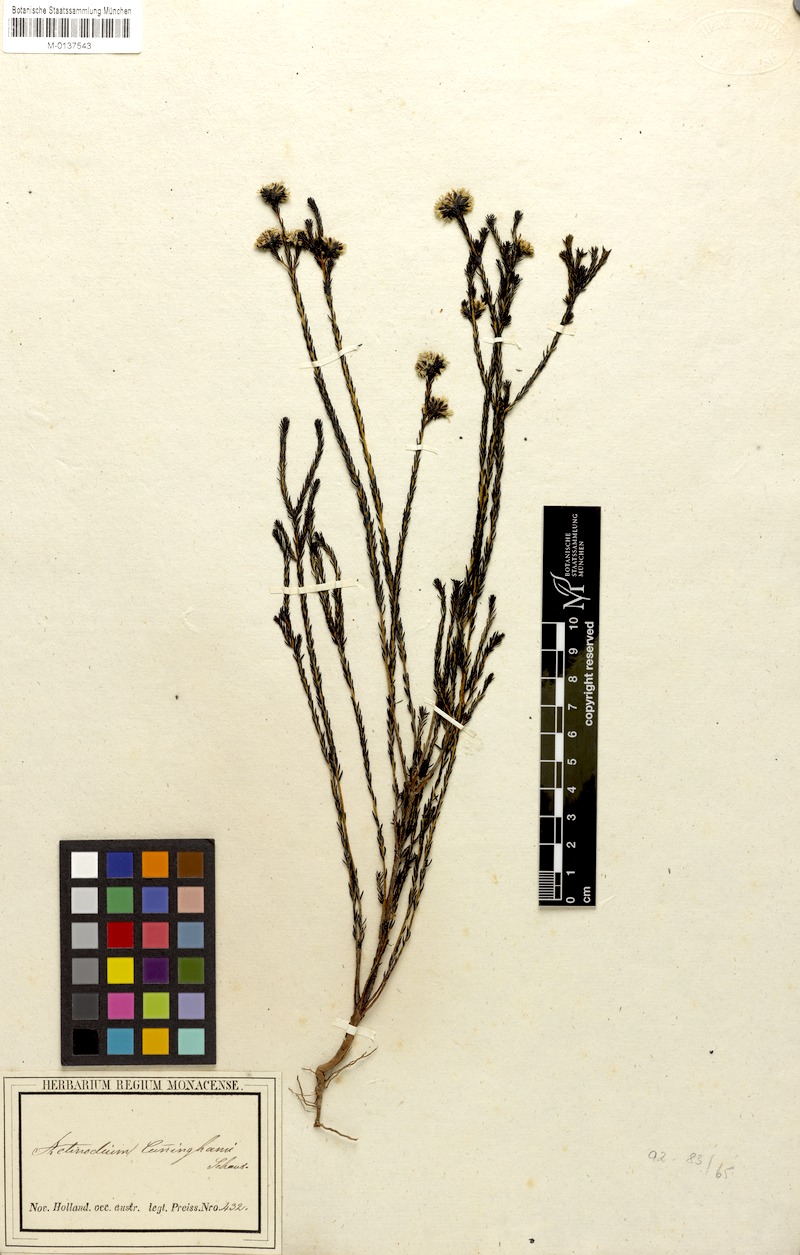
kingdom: Plantae
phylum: Tracheophyta
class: Magnoliopsida
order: Myrtales
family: Myrtaceae
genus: Actinodium
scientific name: Actinodium cunninghamii
